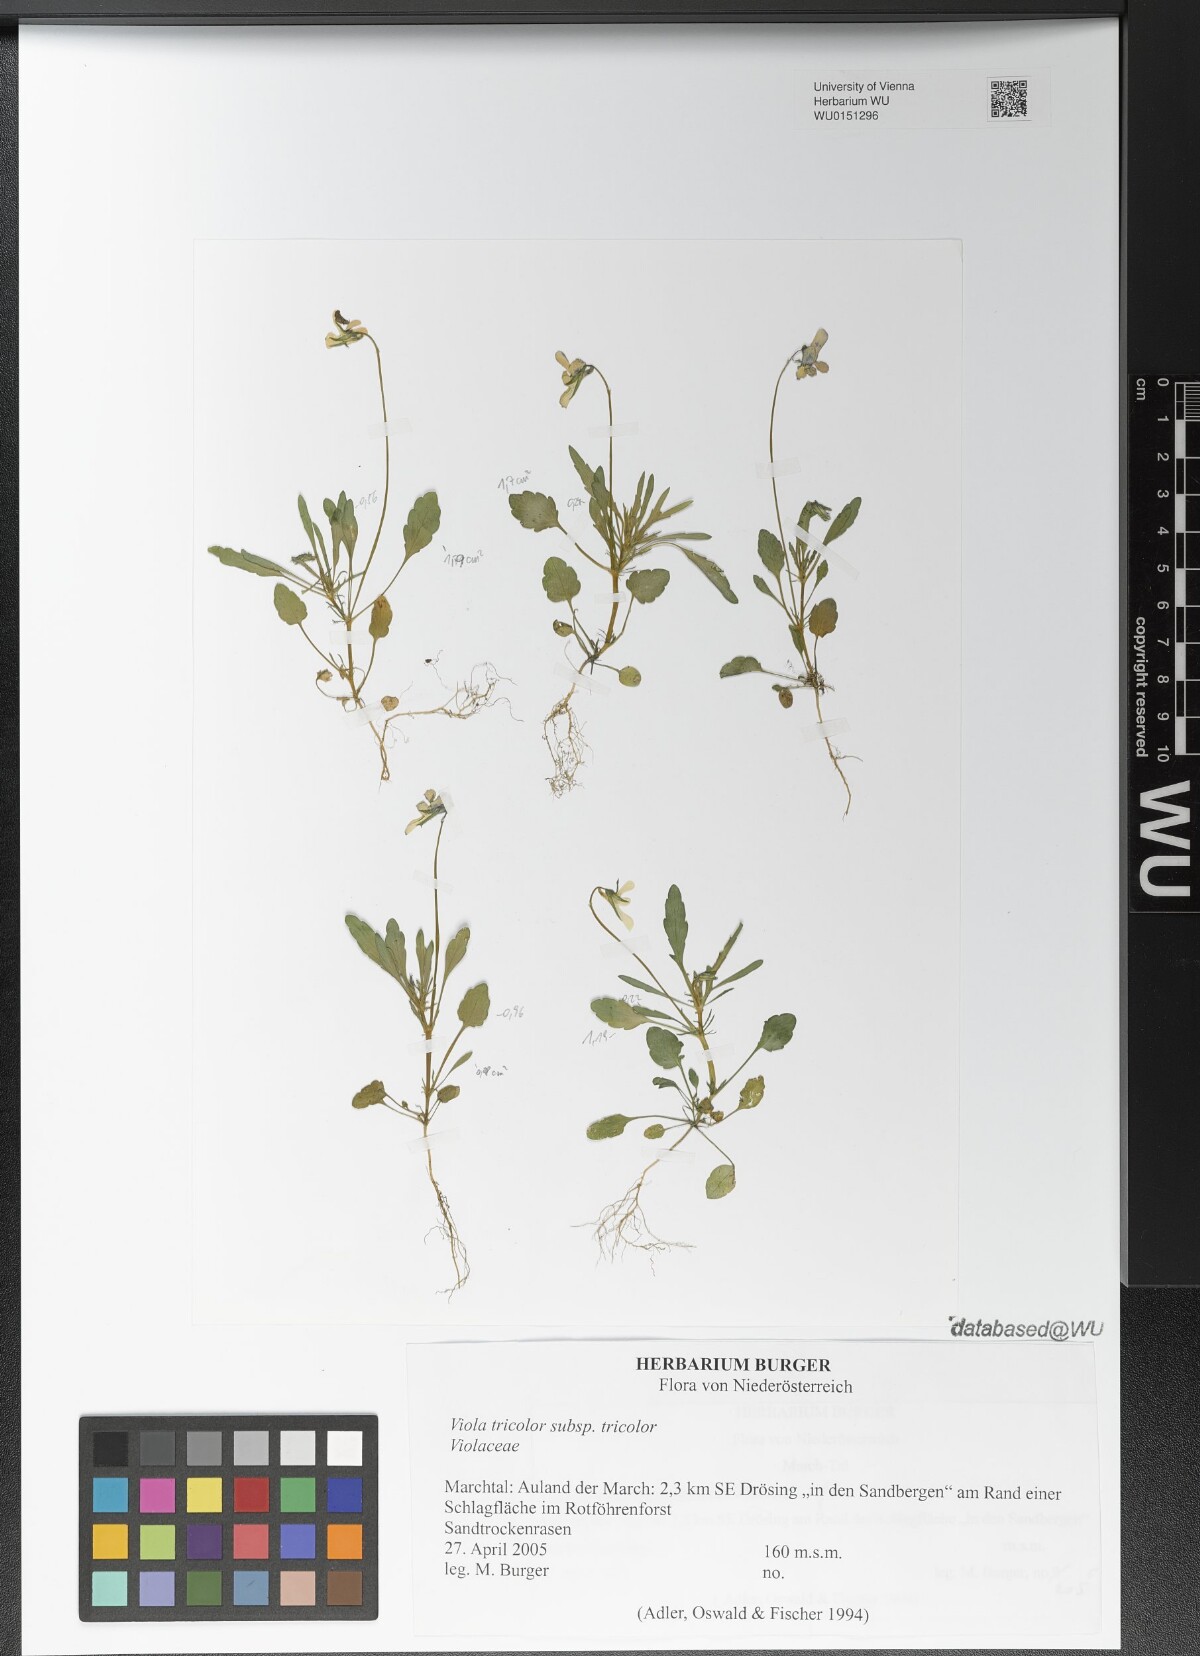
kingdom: Plantae
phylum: Tracheophyta
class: Magnoliopsida
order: Malpighiales
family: Violaceae
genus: Viola
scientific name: Viola tricolor
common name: Pansy
